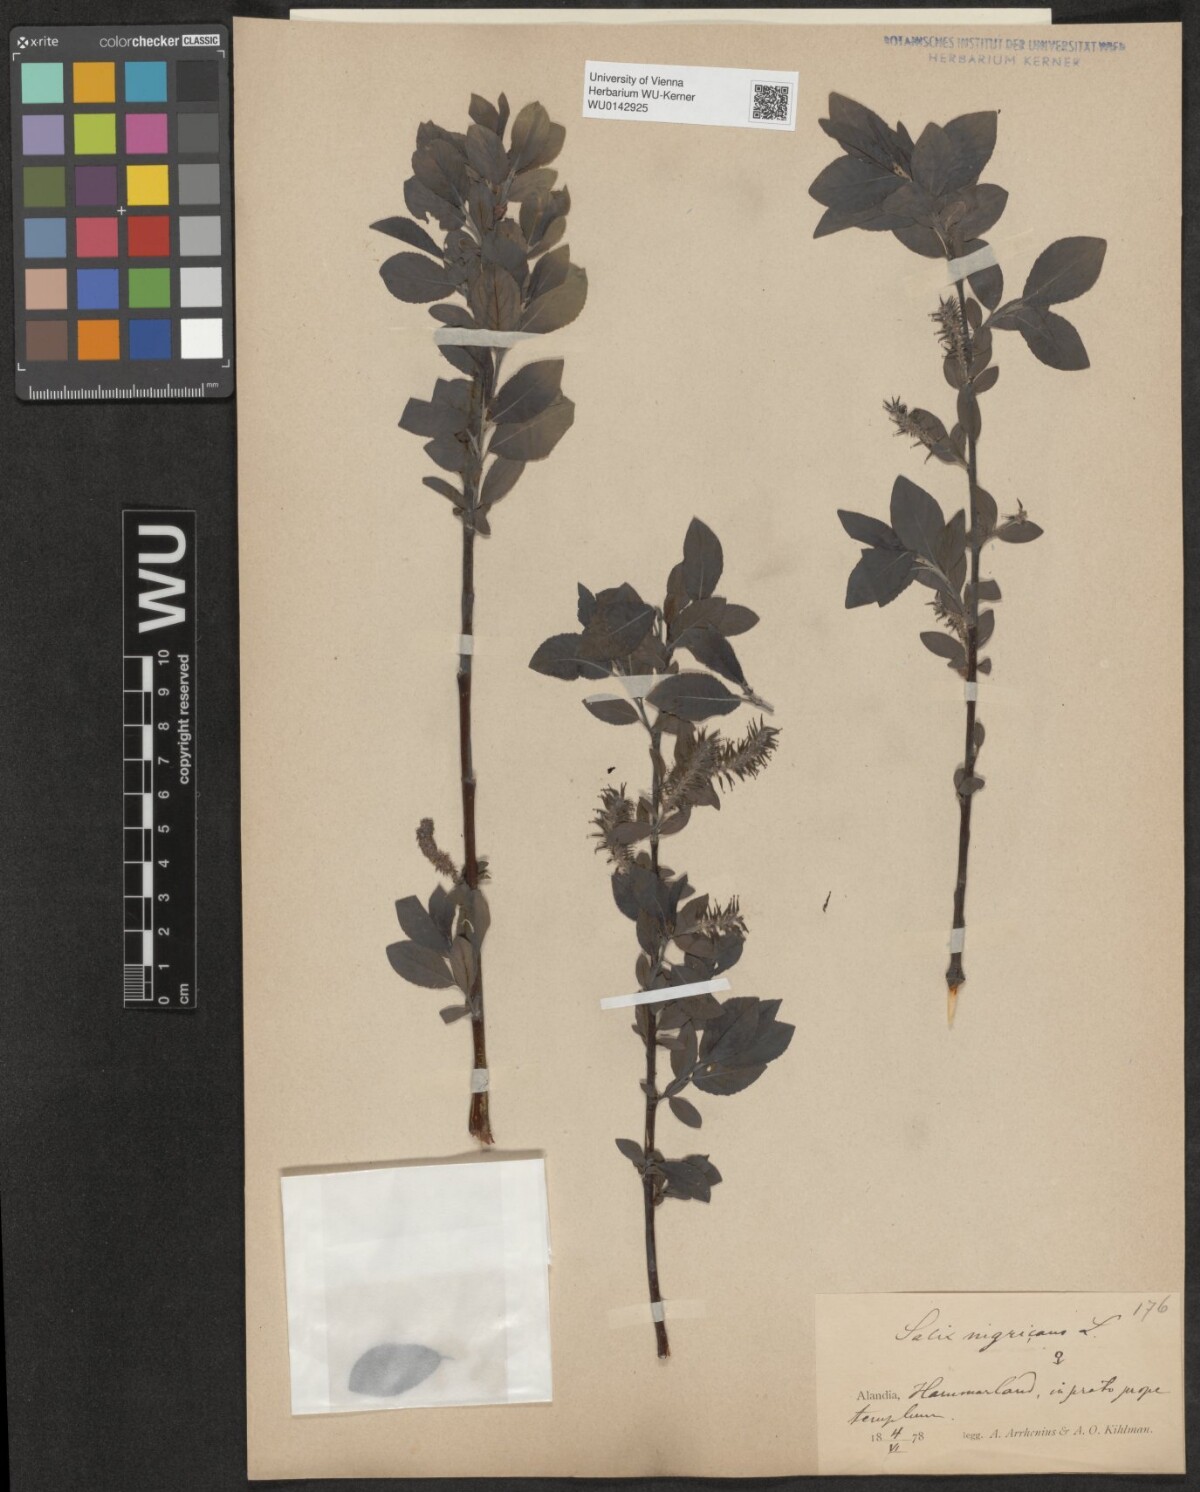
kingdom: Plantae
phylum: Tracheophyta
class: Magnoliopsida
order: Malpighiales
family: Salicaceae
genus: Salix
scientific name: Salix myrsinifolia
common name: Dark-leaved willow
